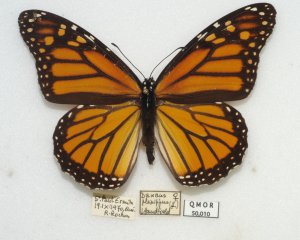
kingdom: Animalia
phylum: Arthropoda
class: Insecta
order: Lepidoptera
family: Nymphalidae
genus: Danaus
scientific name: Danaus plexippus
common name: Monarch
